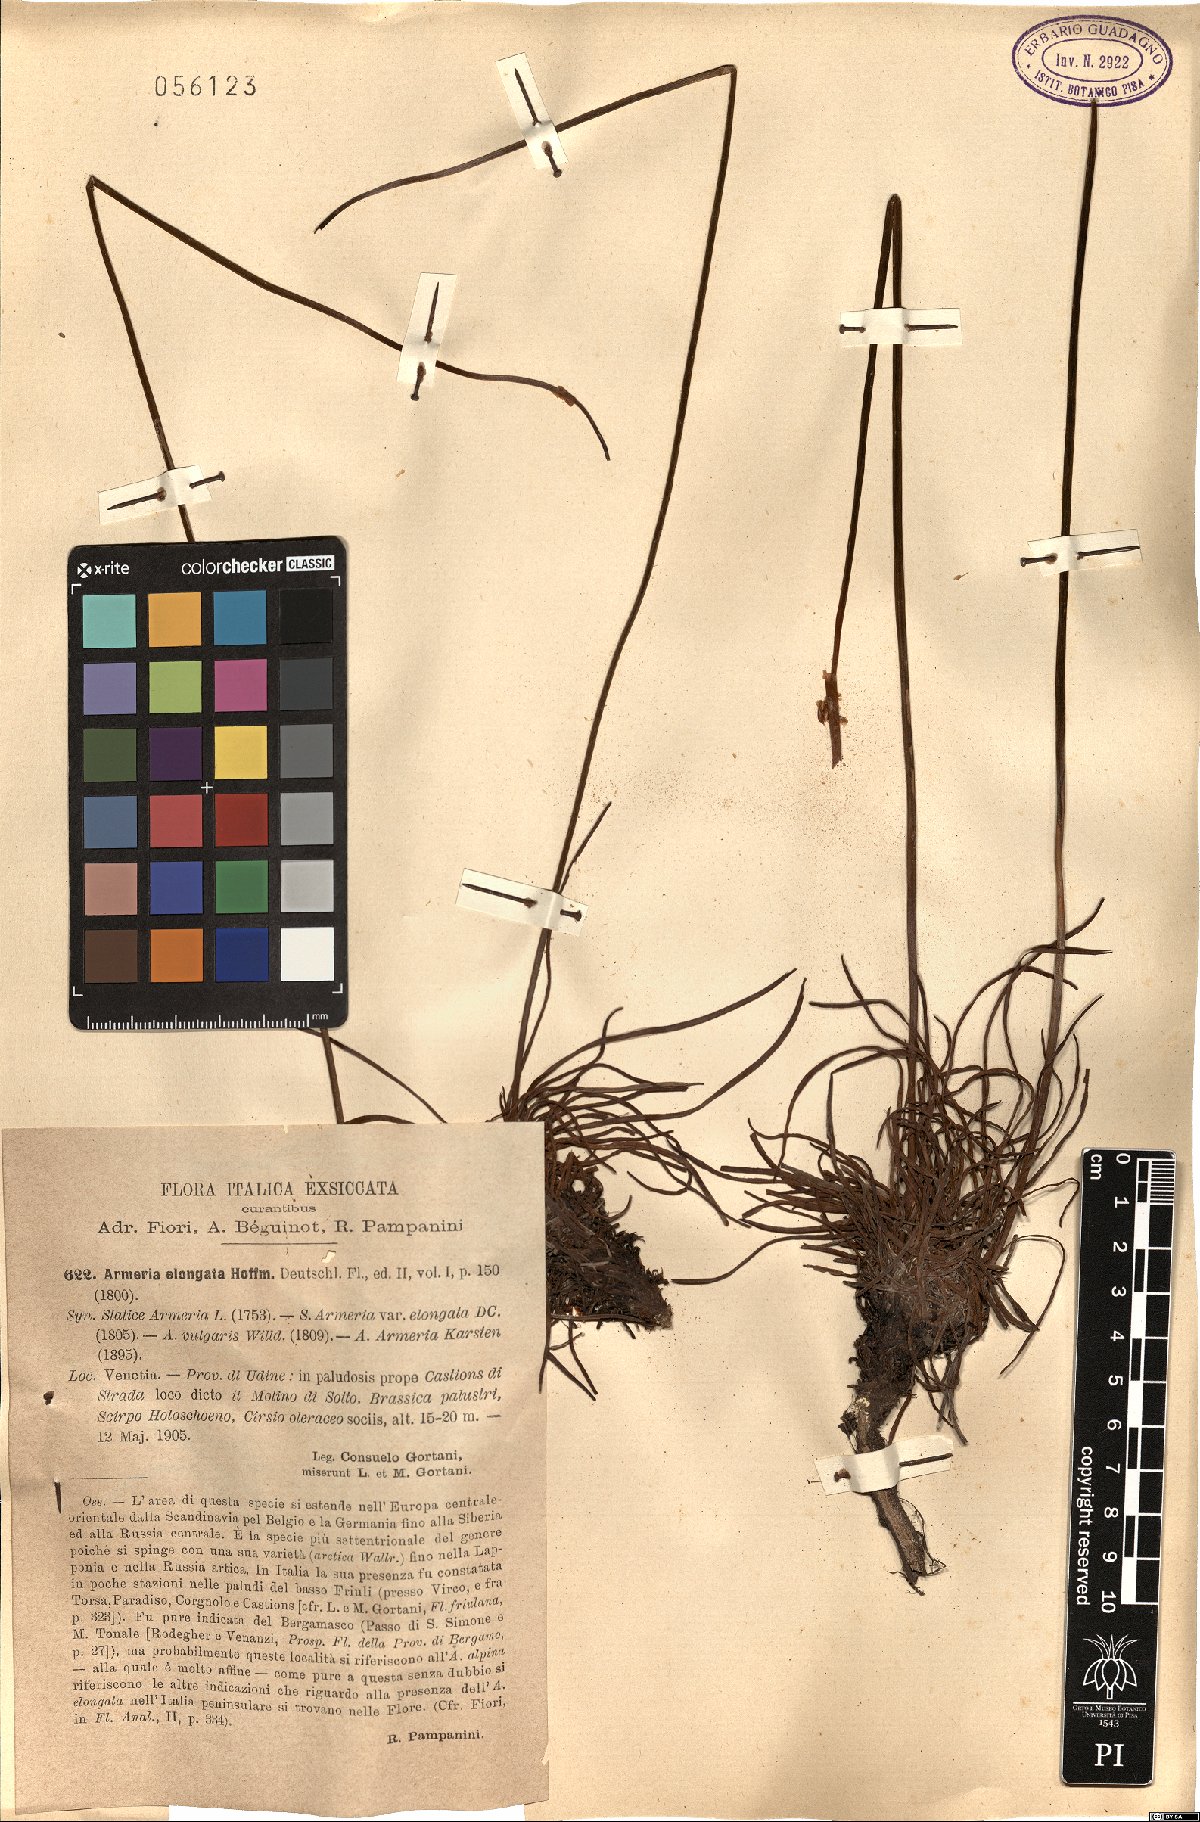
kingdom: Plantae
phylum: Tracheophyta
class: Magnoliopsida
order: Caryophyllales
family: Plumbaginaceae
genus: Armeria
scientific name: Armeria maritima
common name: Thrift
